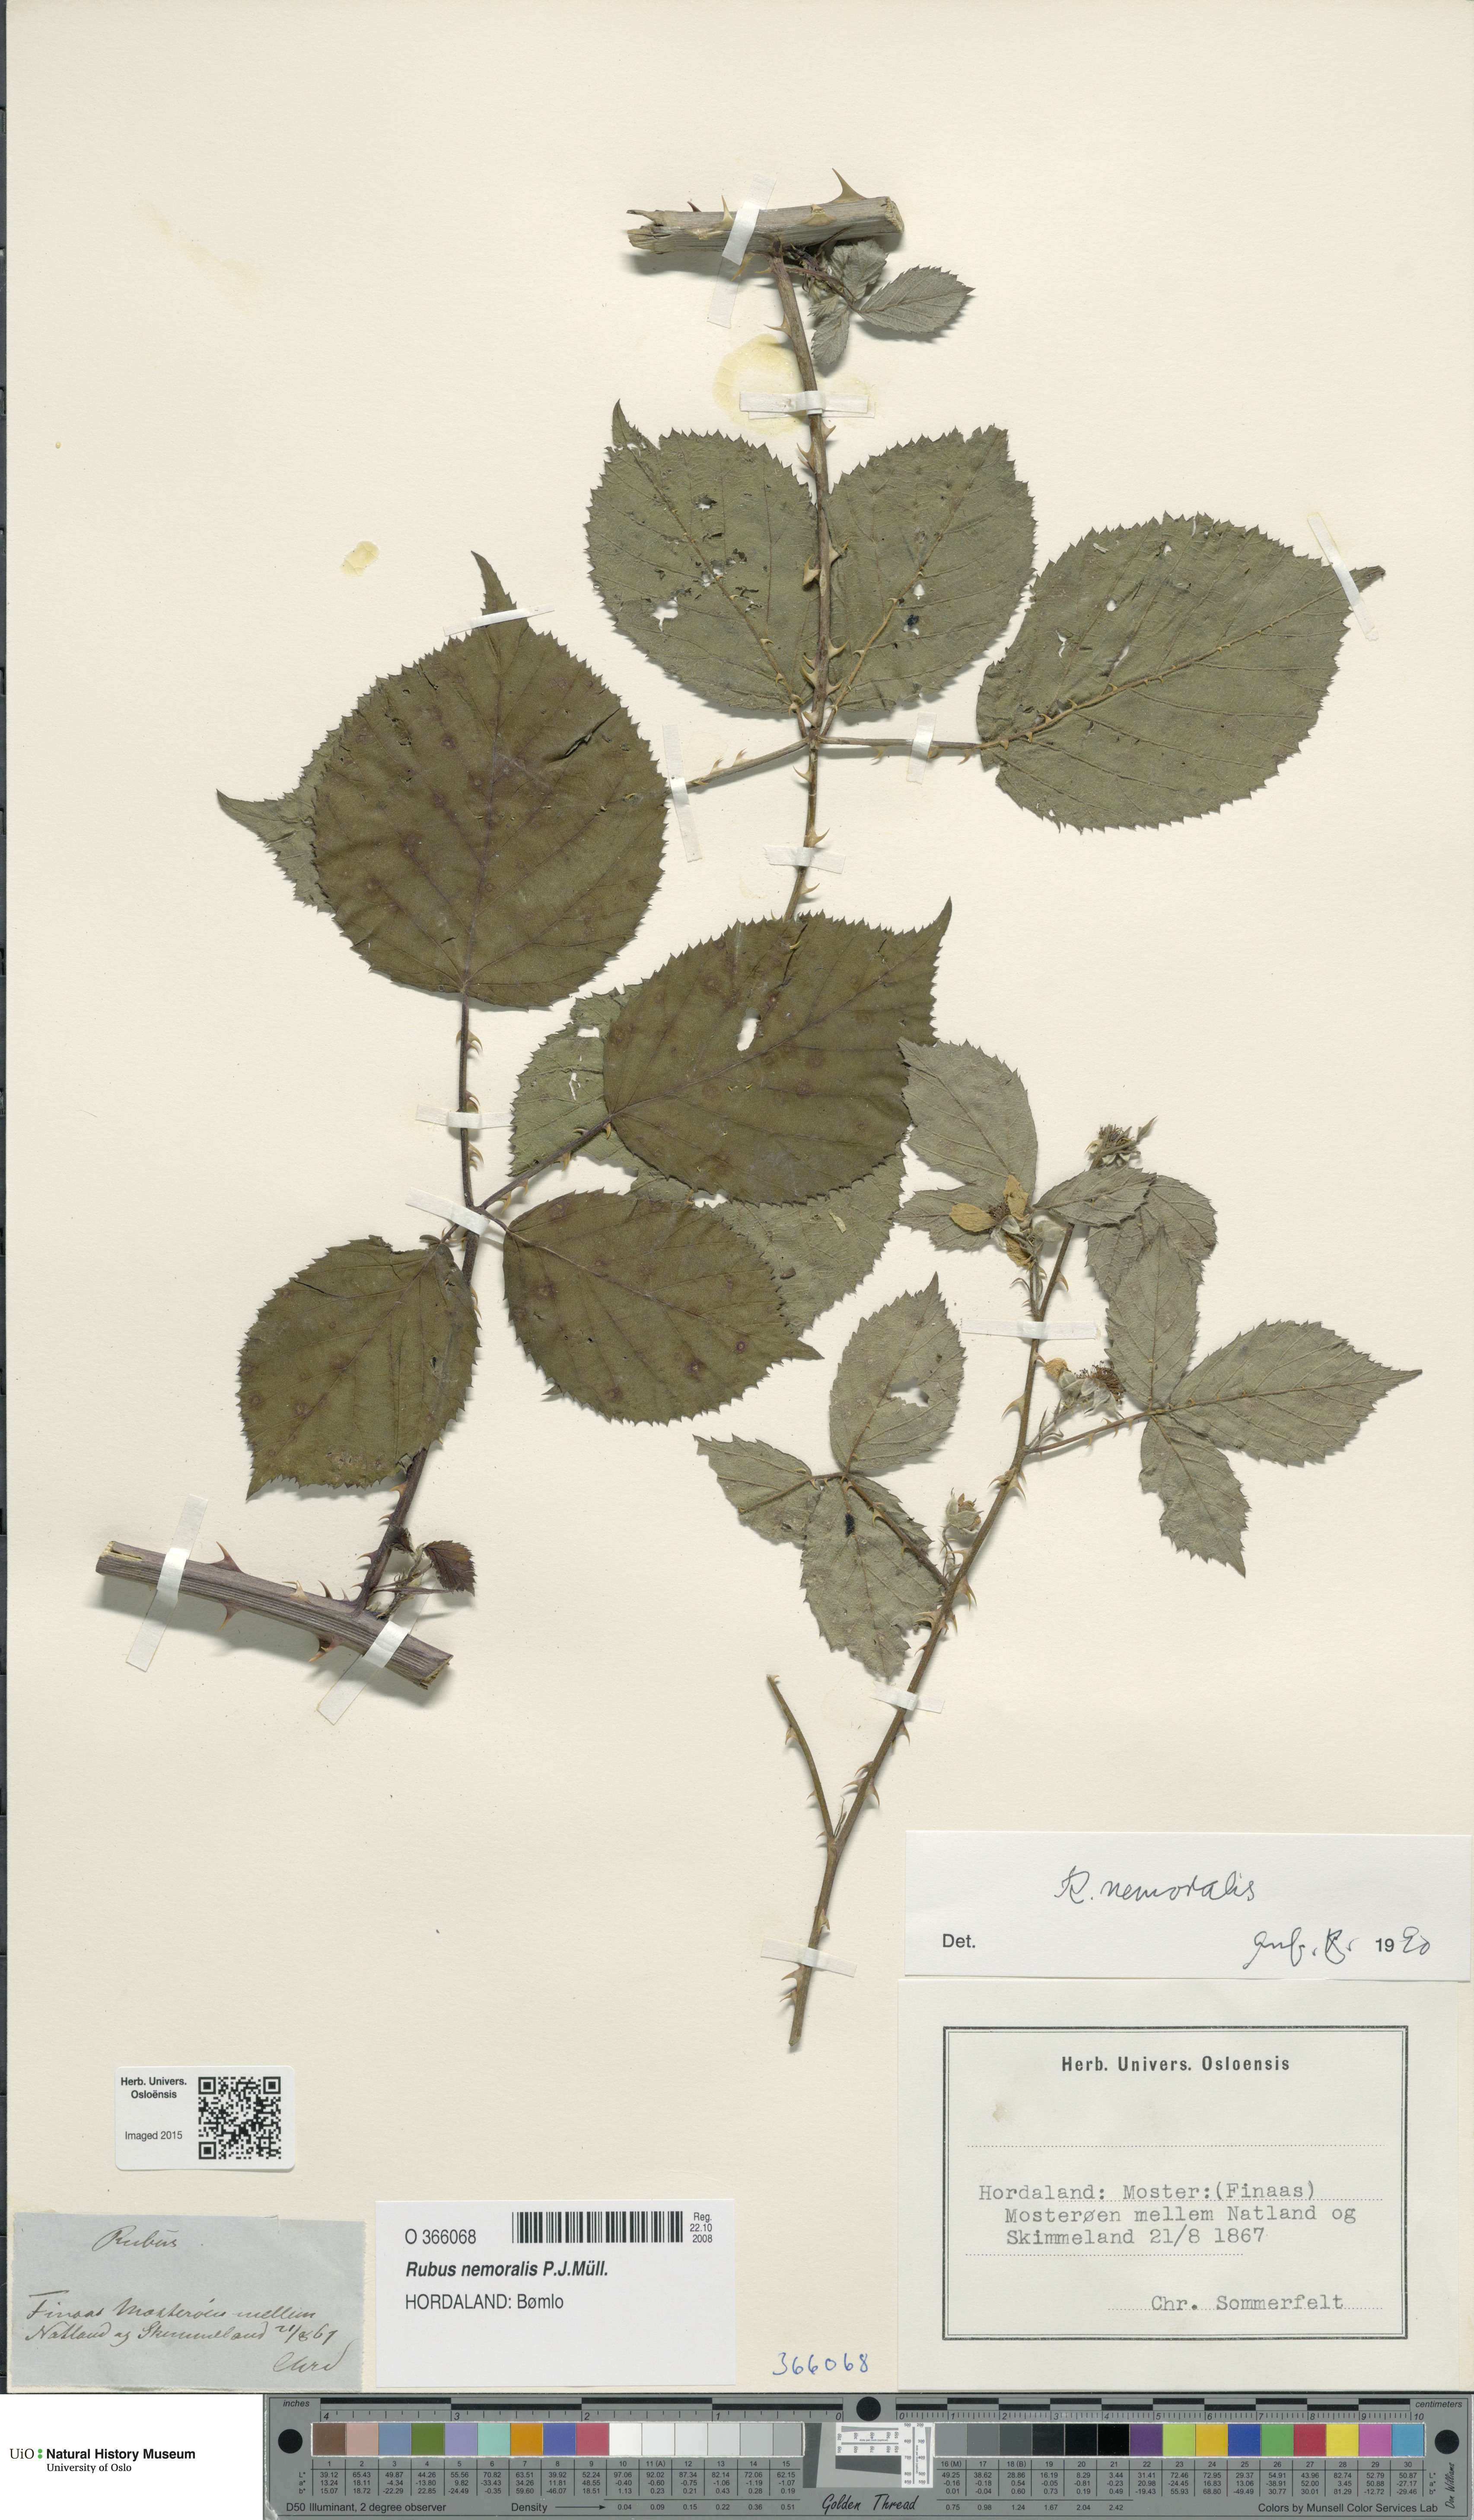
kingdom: Plantae
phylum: Tracheophyta
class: Magnoliopsida
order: Rosales
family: Rosaceae
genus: Rubus
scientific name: Rubus nemoralis
